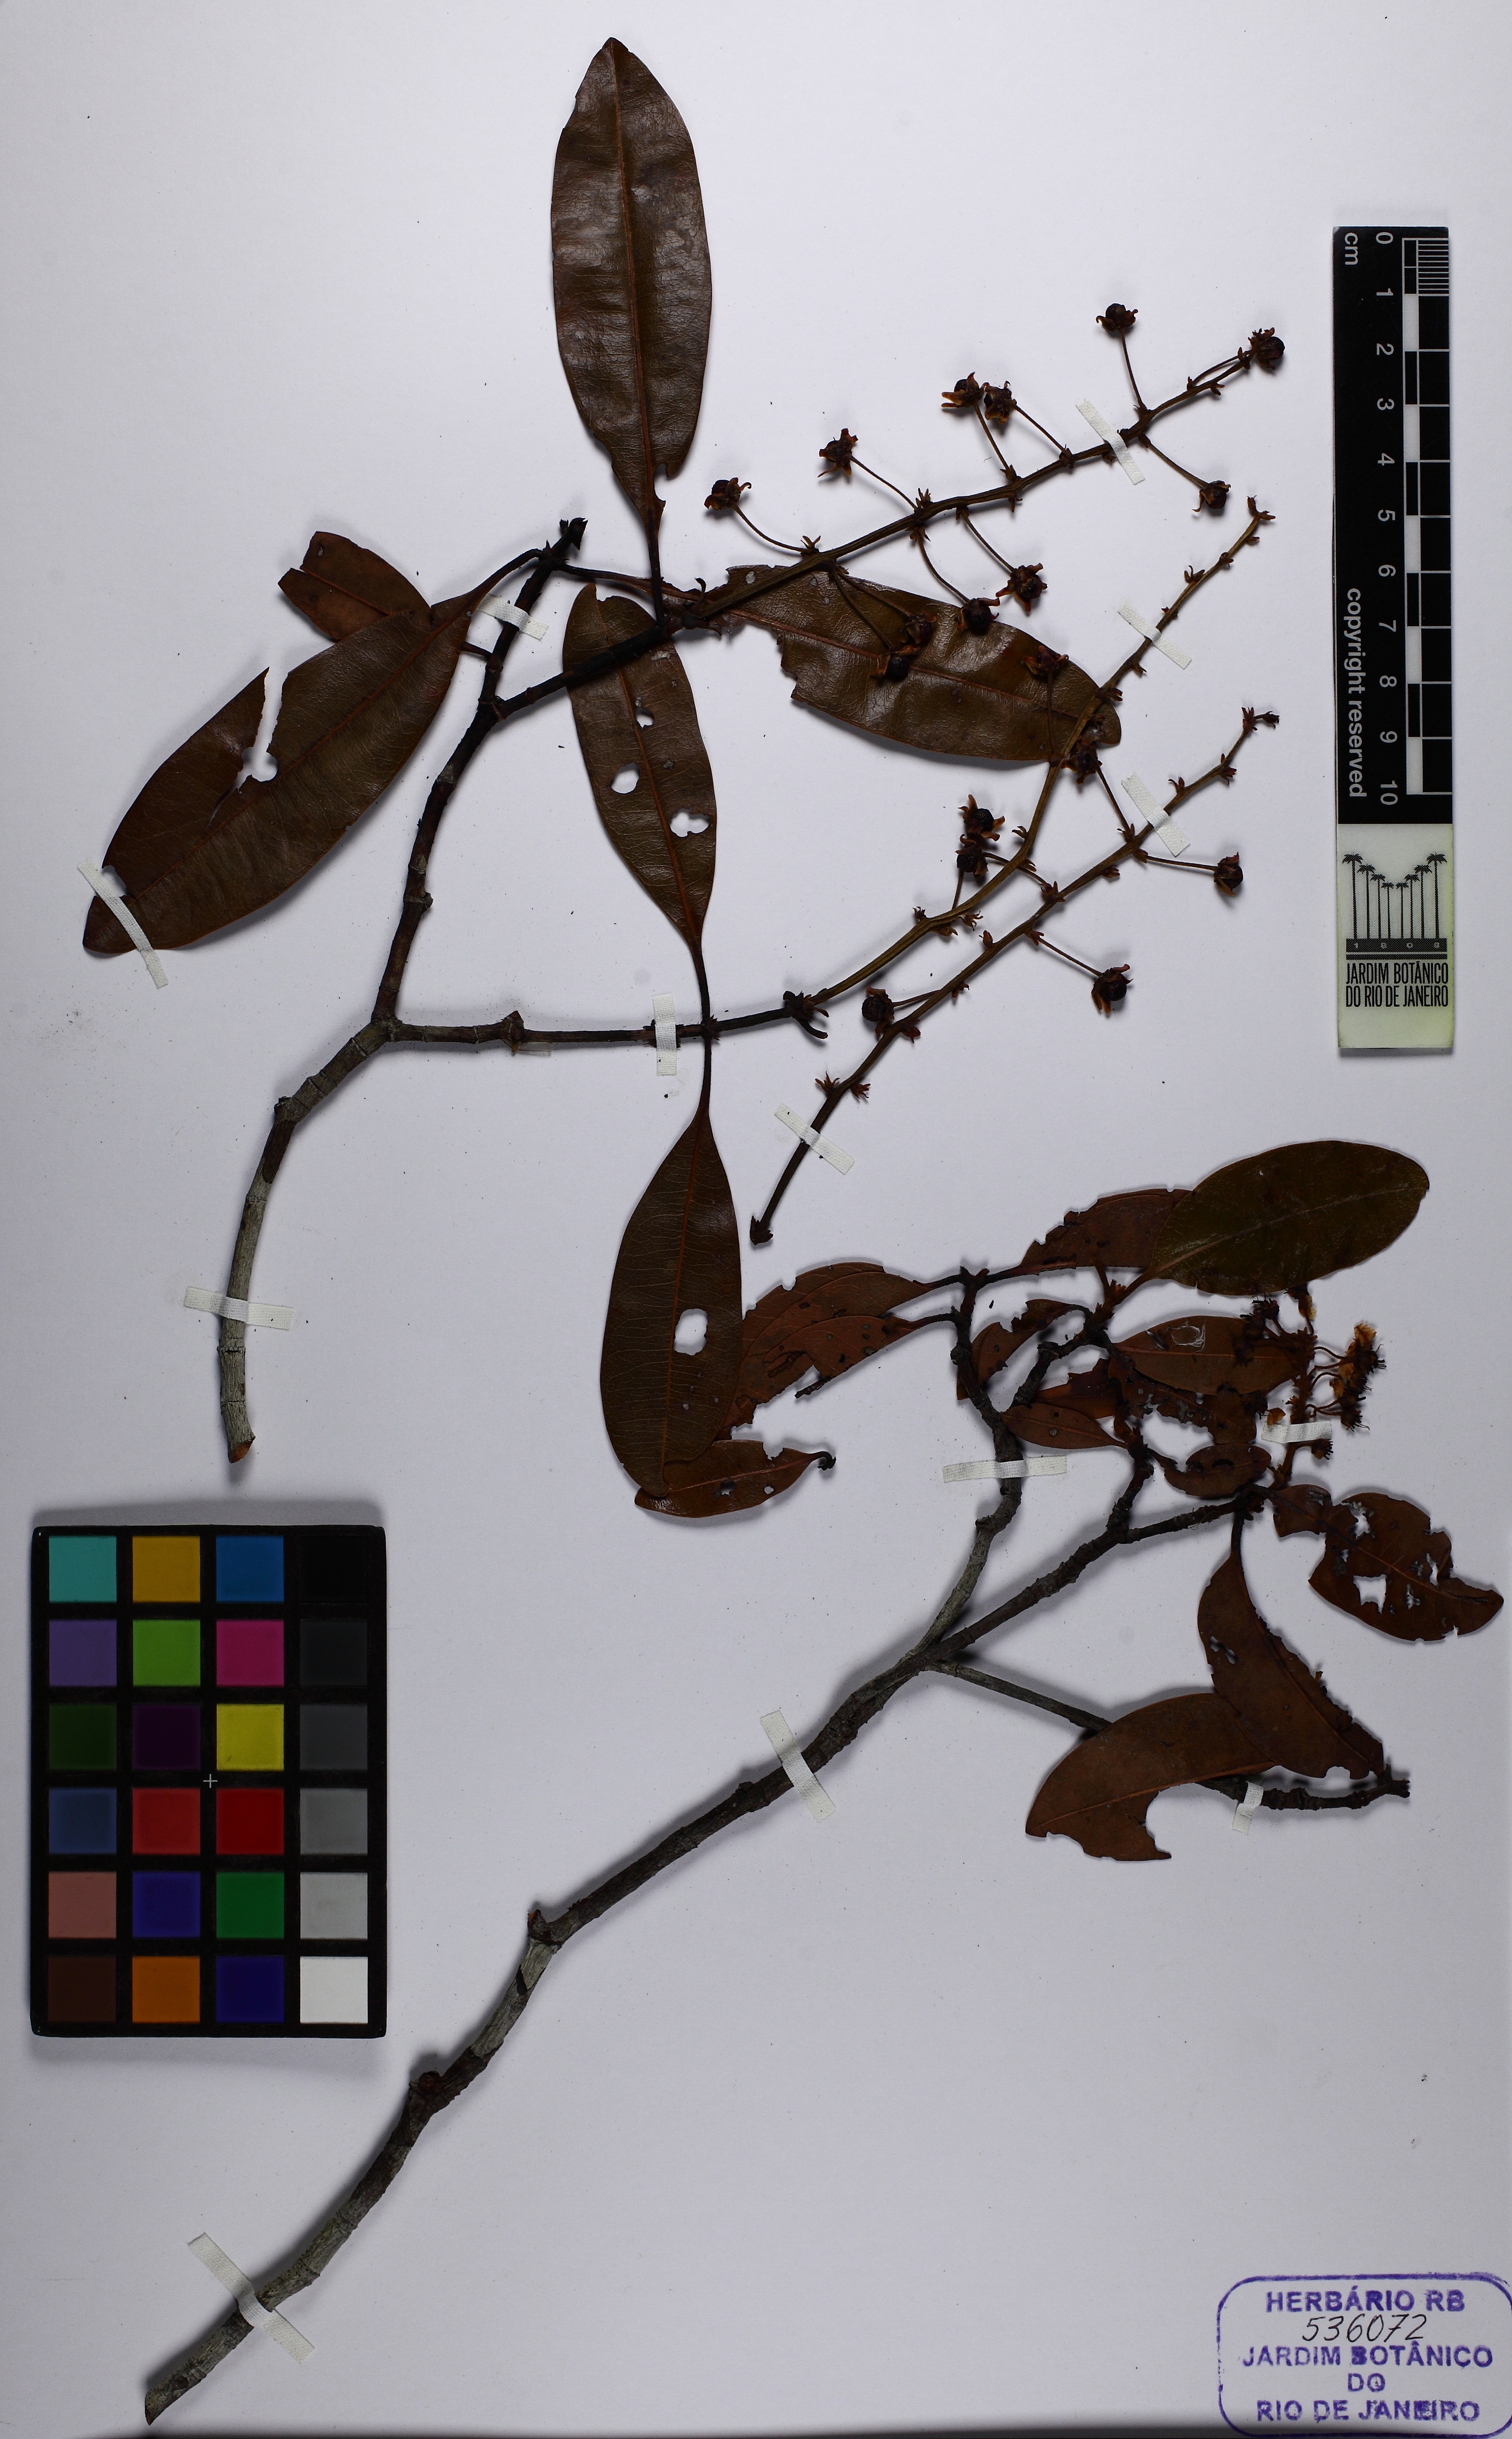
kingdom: Plantae
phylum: Tracheophyta
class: Magnoliopsida
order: Malpighiales
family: Malpighiaceae
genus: Byrsonima
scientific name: Byrsonima
